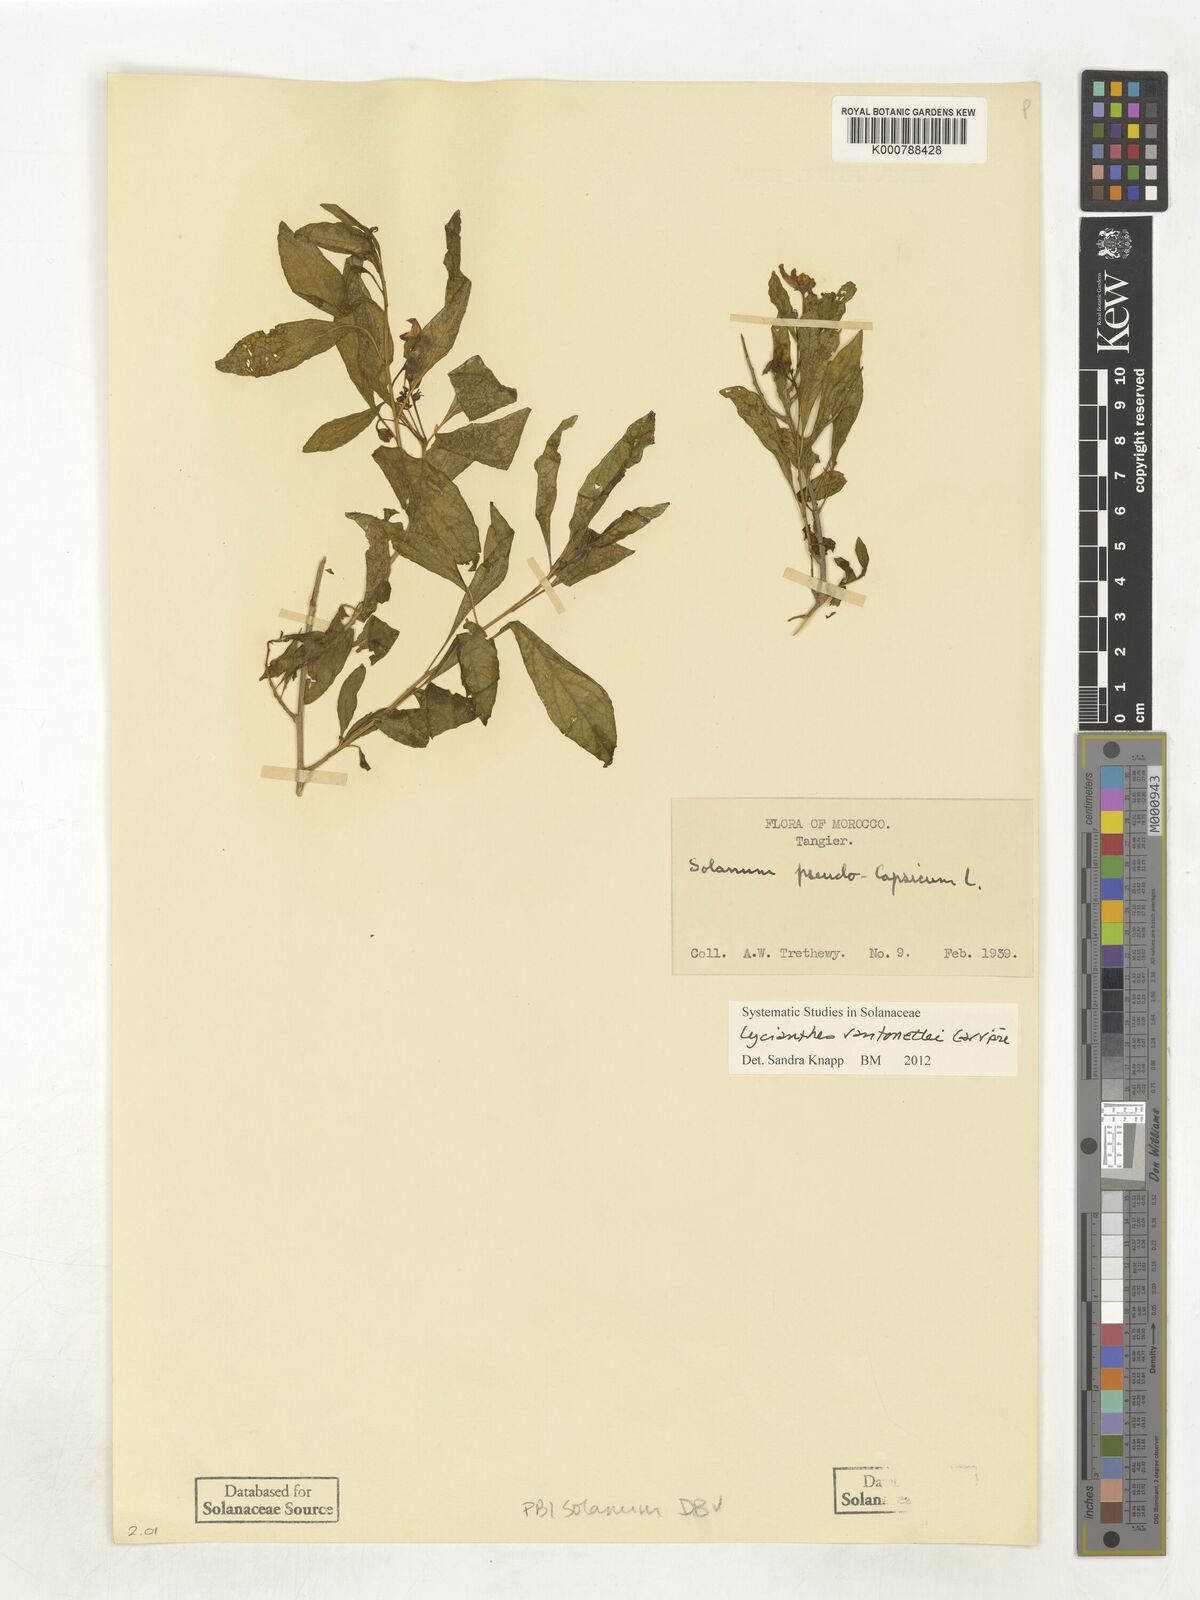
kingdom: Plantae
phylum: Tracheophyta
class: Magnoliopsida
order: Solanales
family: Solanaceae
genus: Lycianthes
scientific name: Lycianthes
